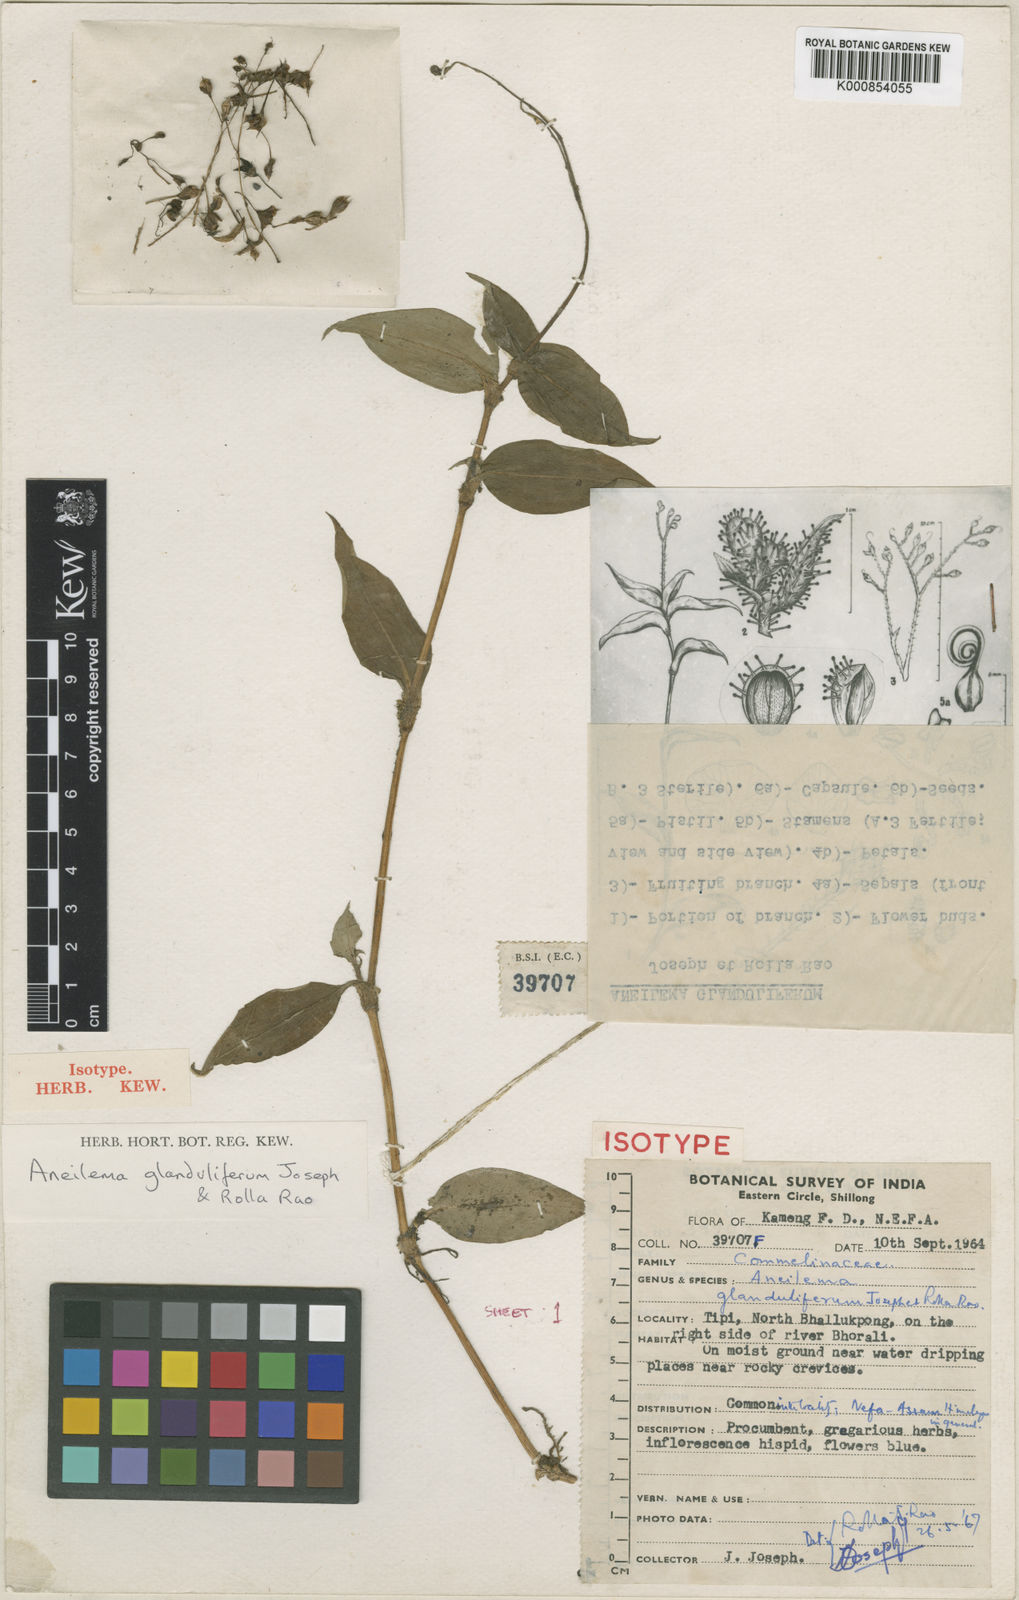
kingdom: Plantae
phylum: Tracheophyta
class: Liliopsida
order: Commelinales
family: Commelinaceae
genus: Murdannia
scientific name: Murdannia
